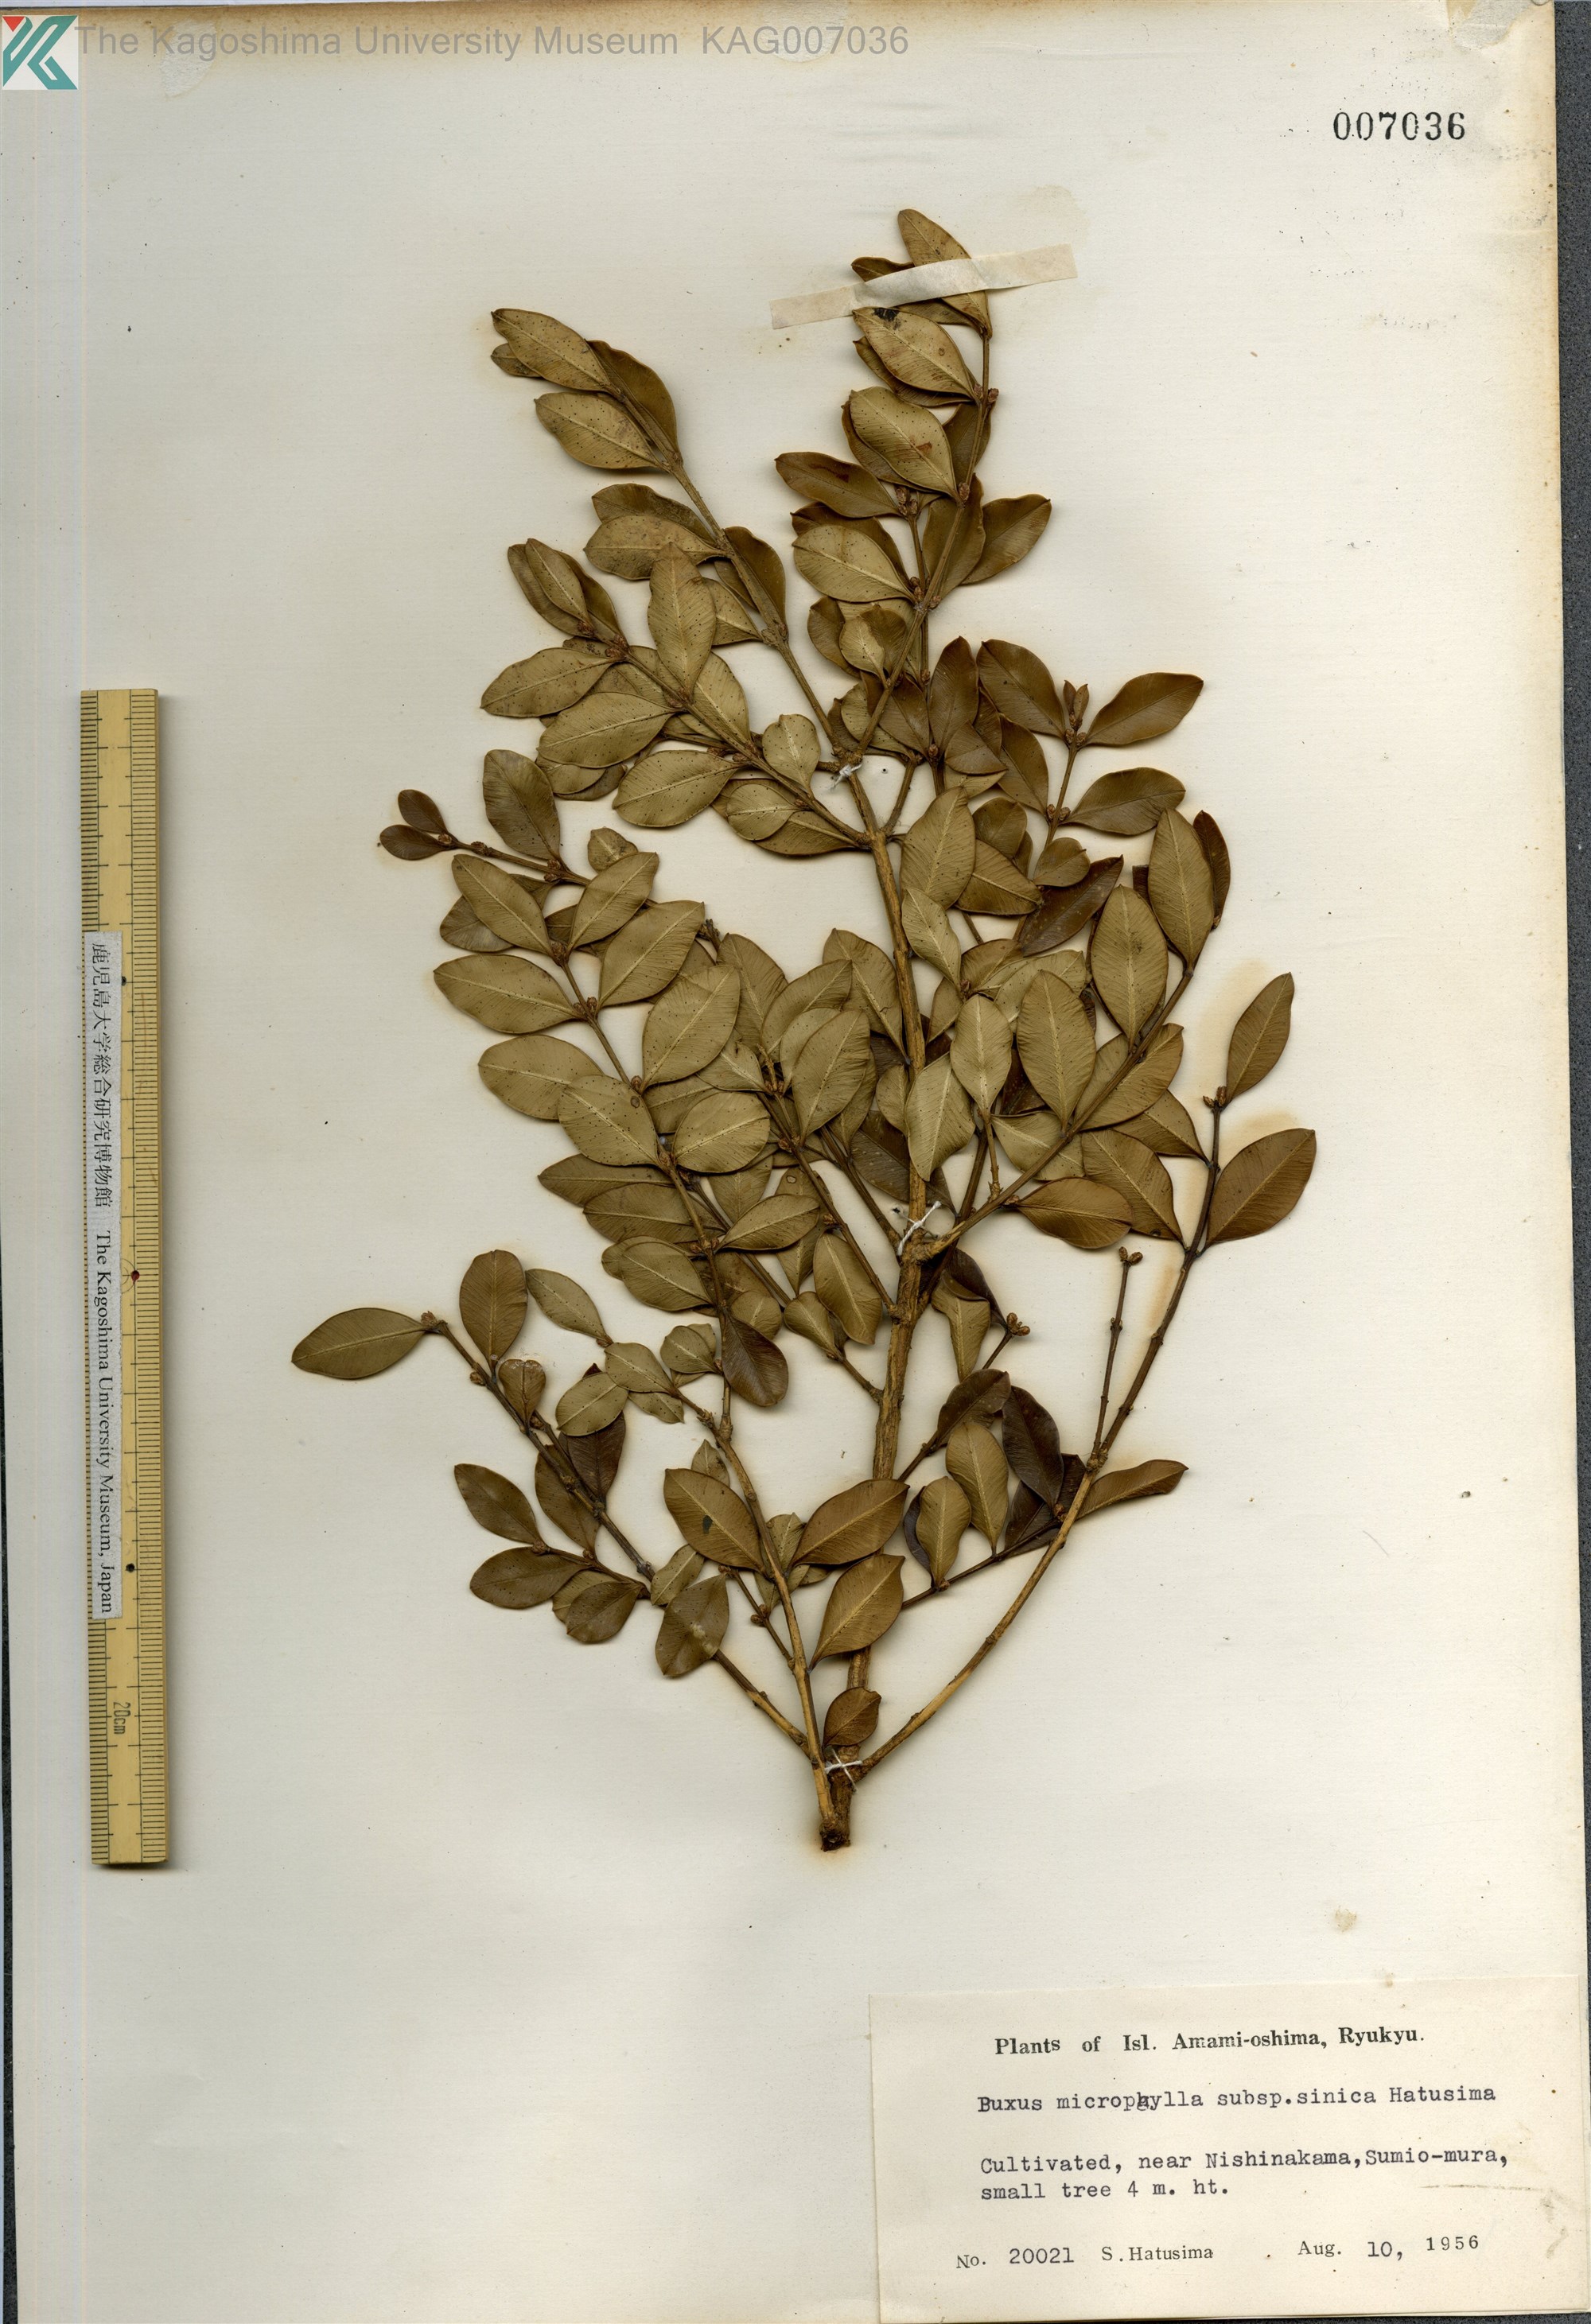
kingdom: Plantae
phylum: Tracheophyta
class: Magnoliopsida
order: Buxales
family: Buxaceae
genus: Buxus
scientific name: Buxus sinica
